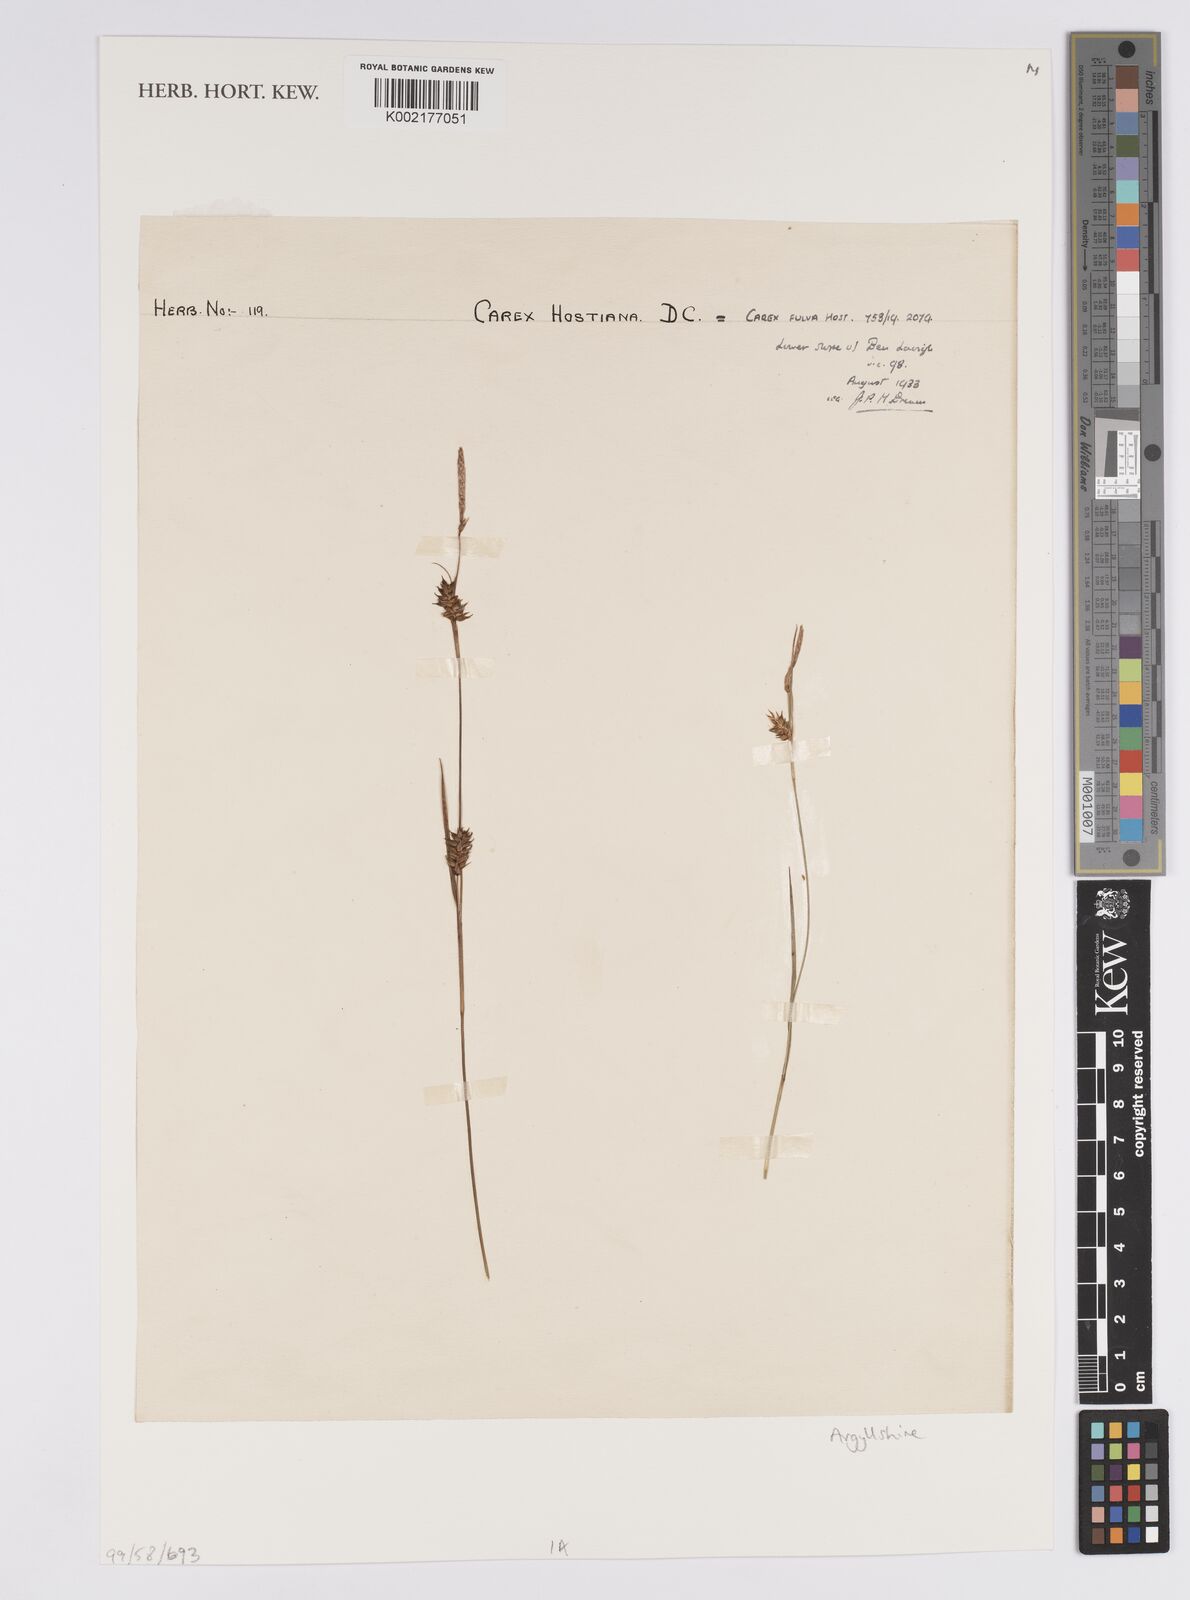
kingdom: Plantae
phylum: Tracheophyta
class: Liliopsida
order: Poales
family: Cyperaceae
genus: Carex
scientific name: Carex hostiana
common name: Tawny sedge
